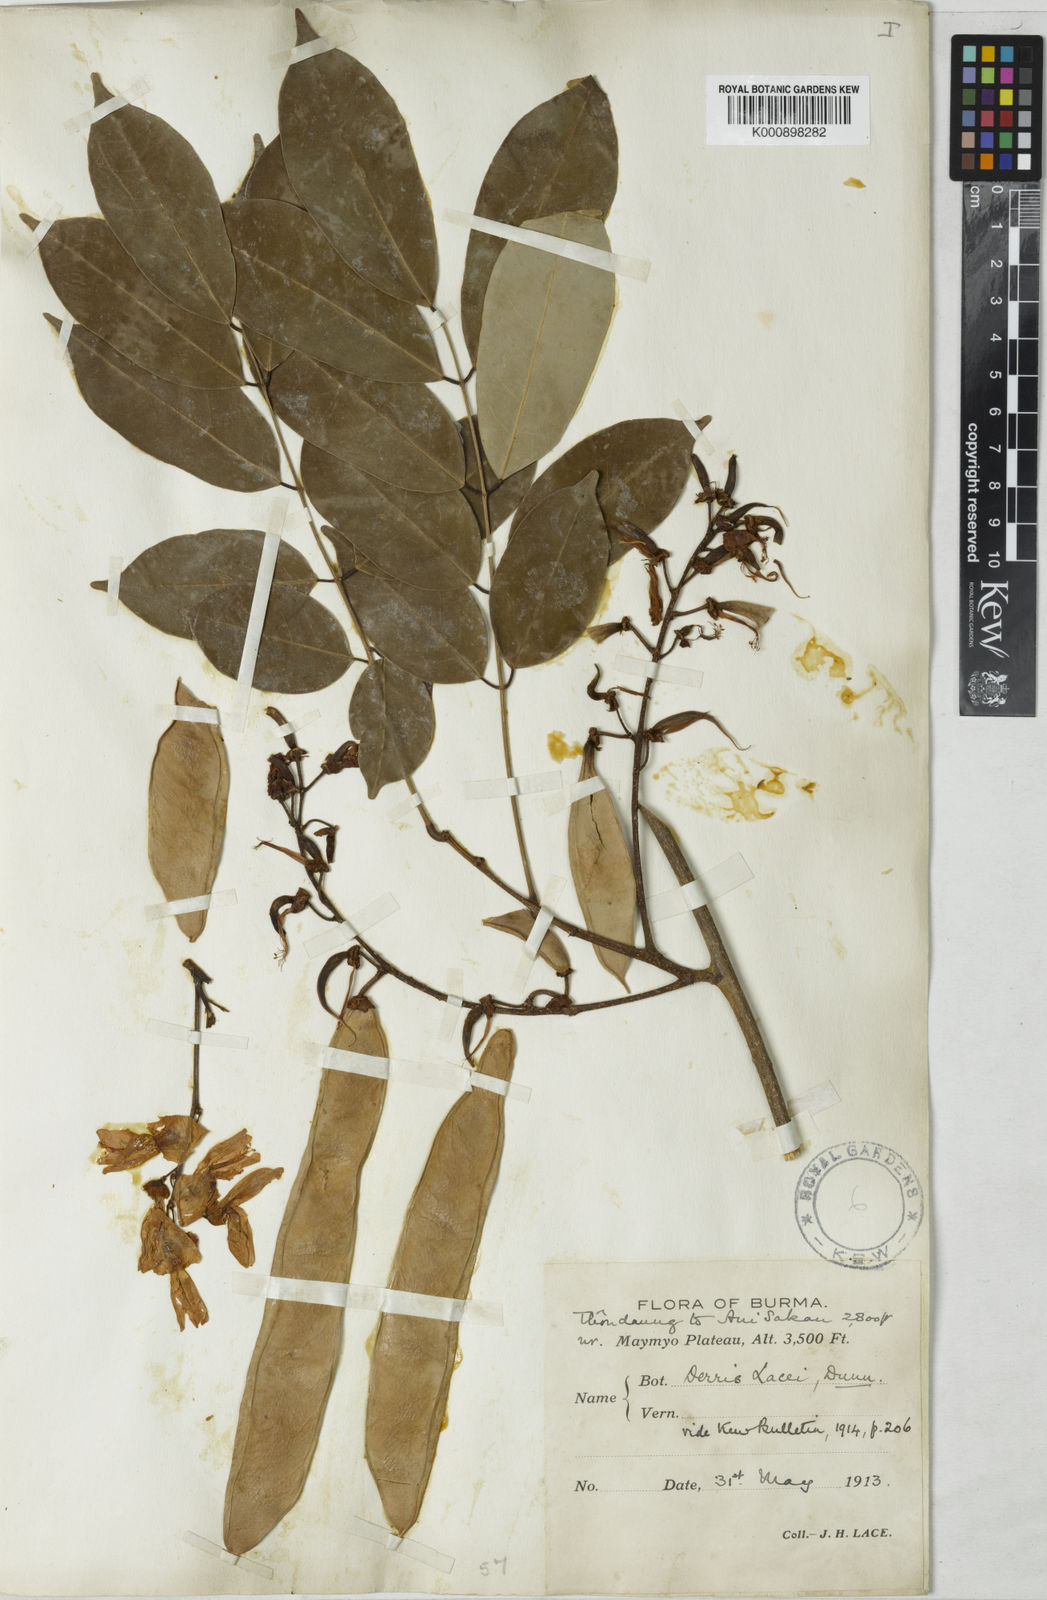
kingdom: Plantae
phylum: Tracheophyta
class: Magnoliopsida
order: Fabales
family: Fabaceae
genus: Derris
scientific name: Derris lacei
